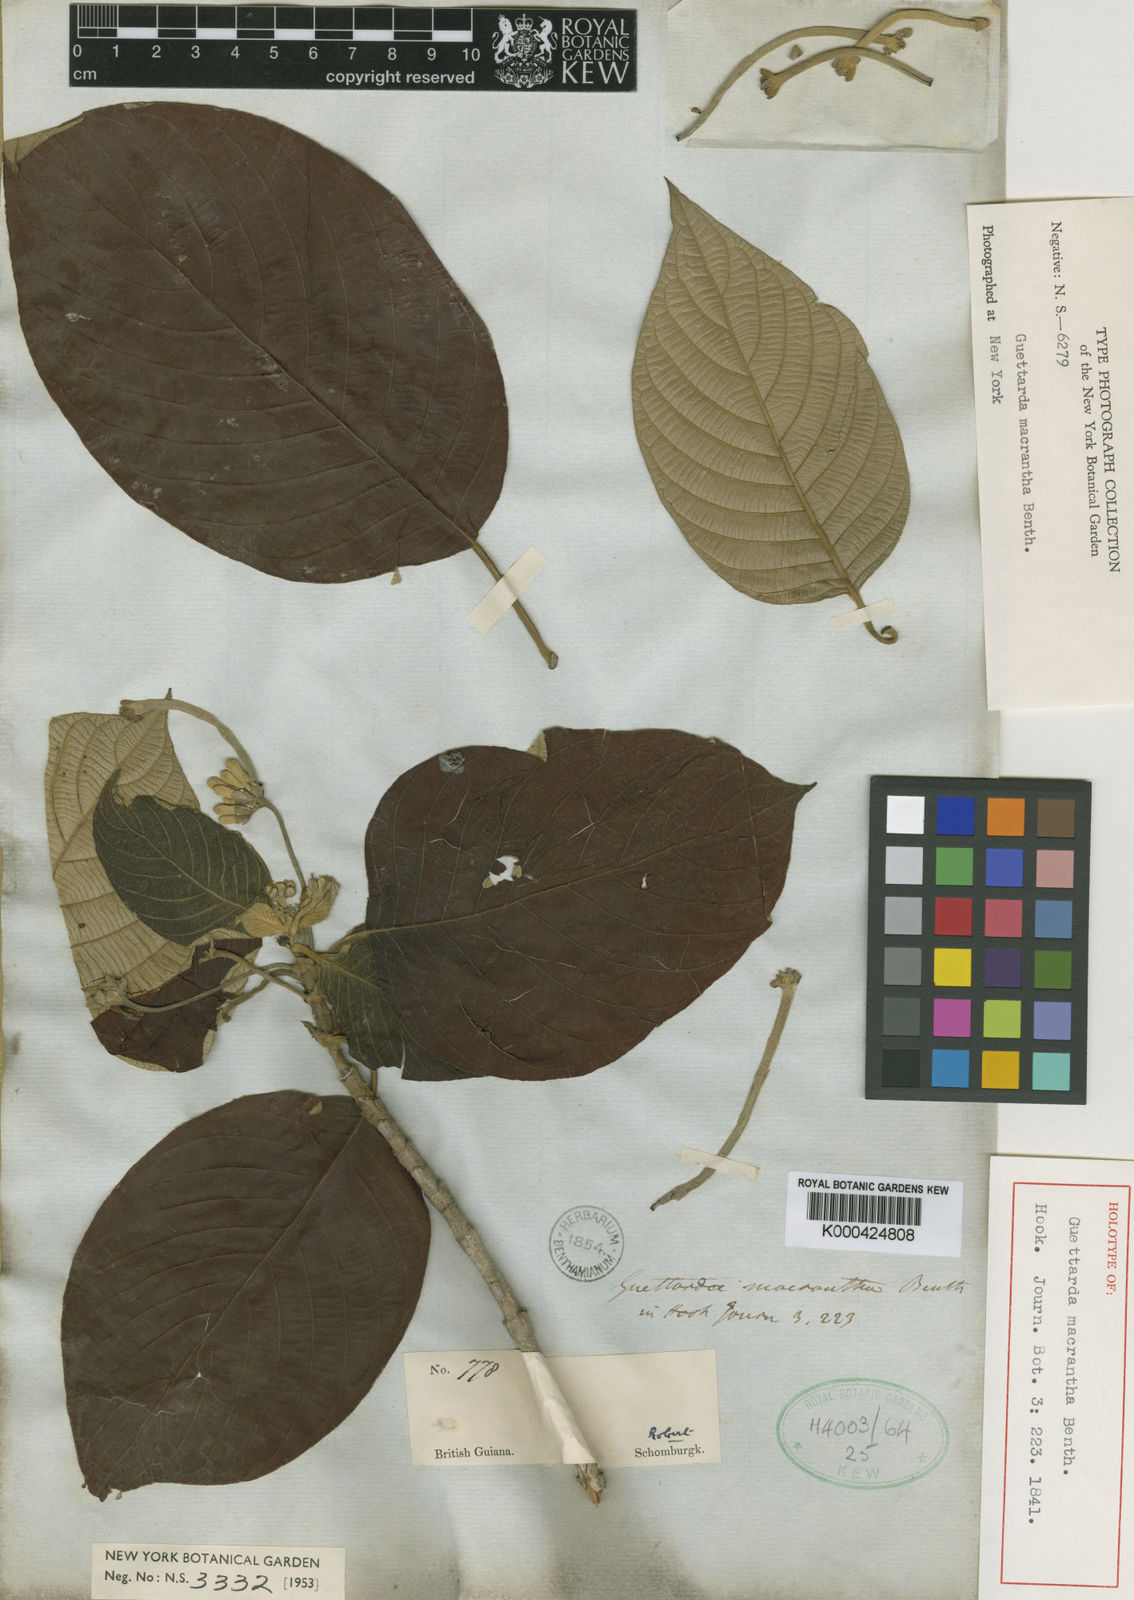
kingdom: Plantae
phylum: Tracheophyta
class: Magnoliopsida
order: Gentianales
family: Rubiaceae
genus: Guettarda
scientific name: Guettarda macrantha
